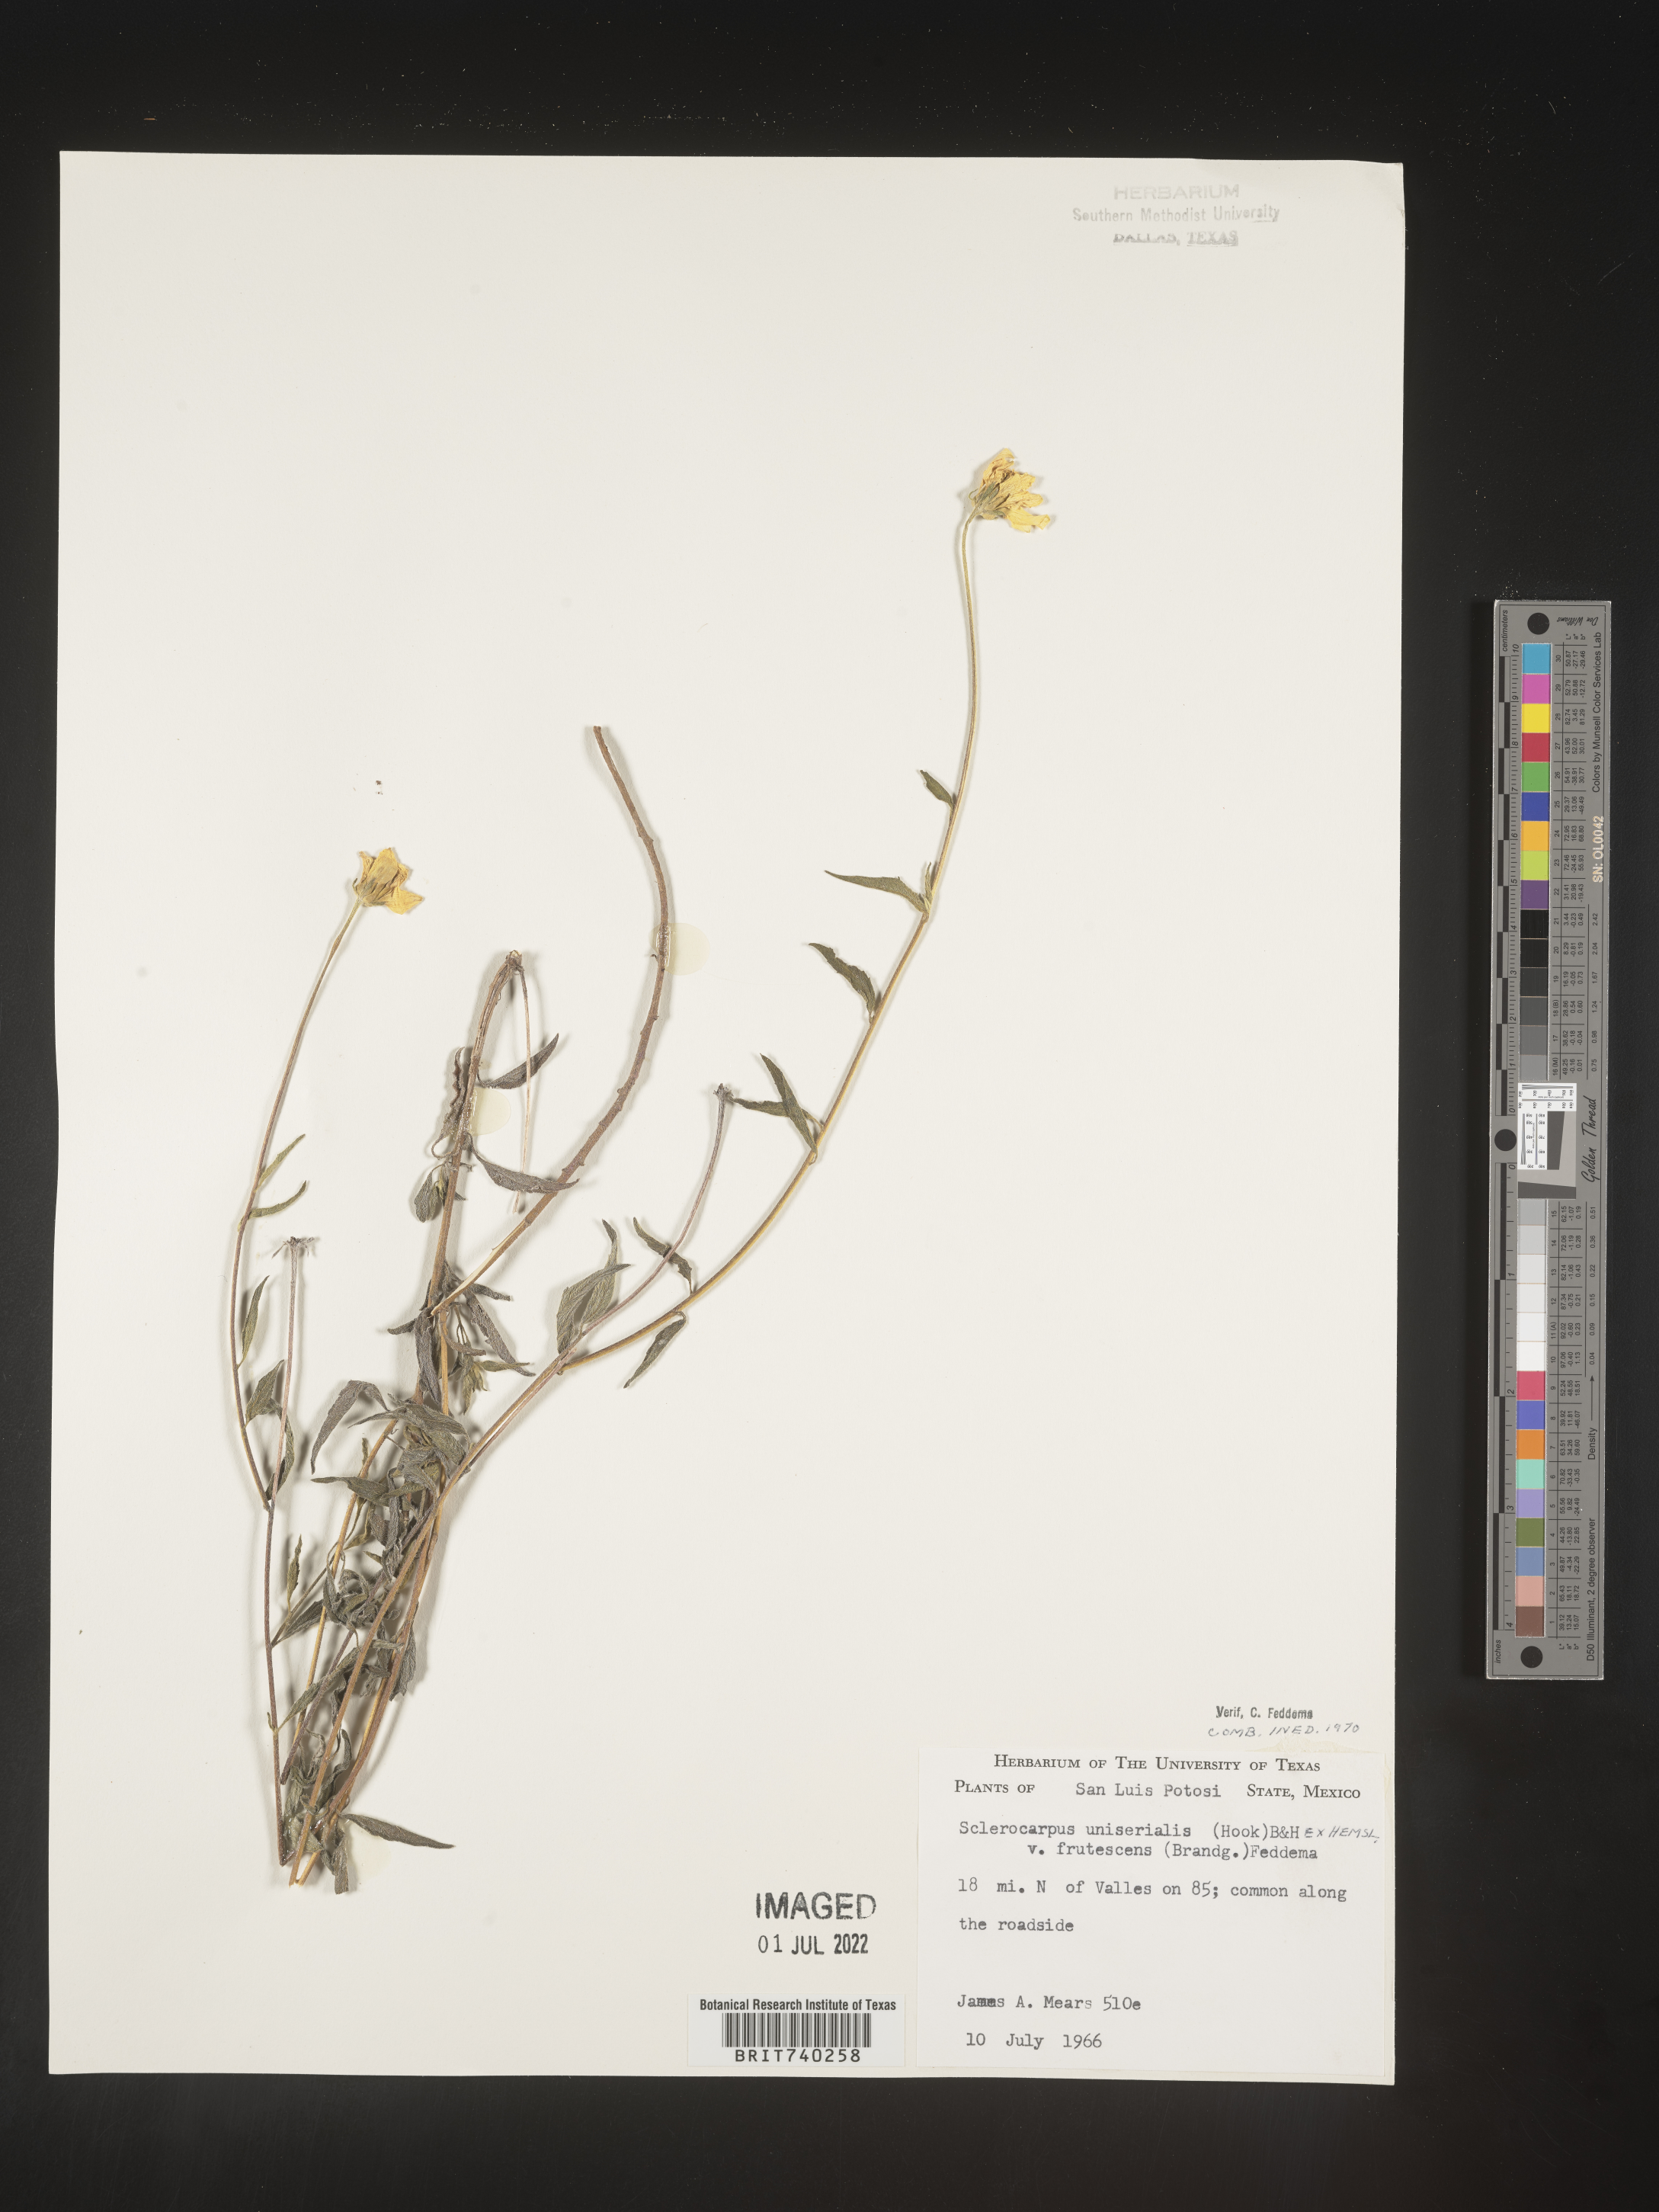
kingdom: Plantae
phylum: Tracheophyta
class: Magnoliopsida
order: Asterales
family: Asteraceae
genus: Sclerocarpus
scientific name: Sclerocarpus
